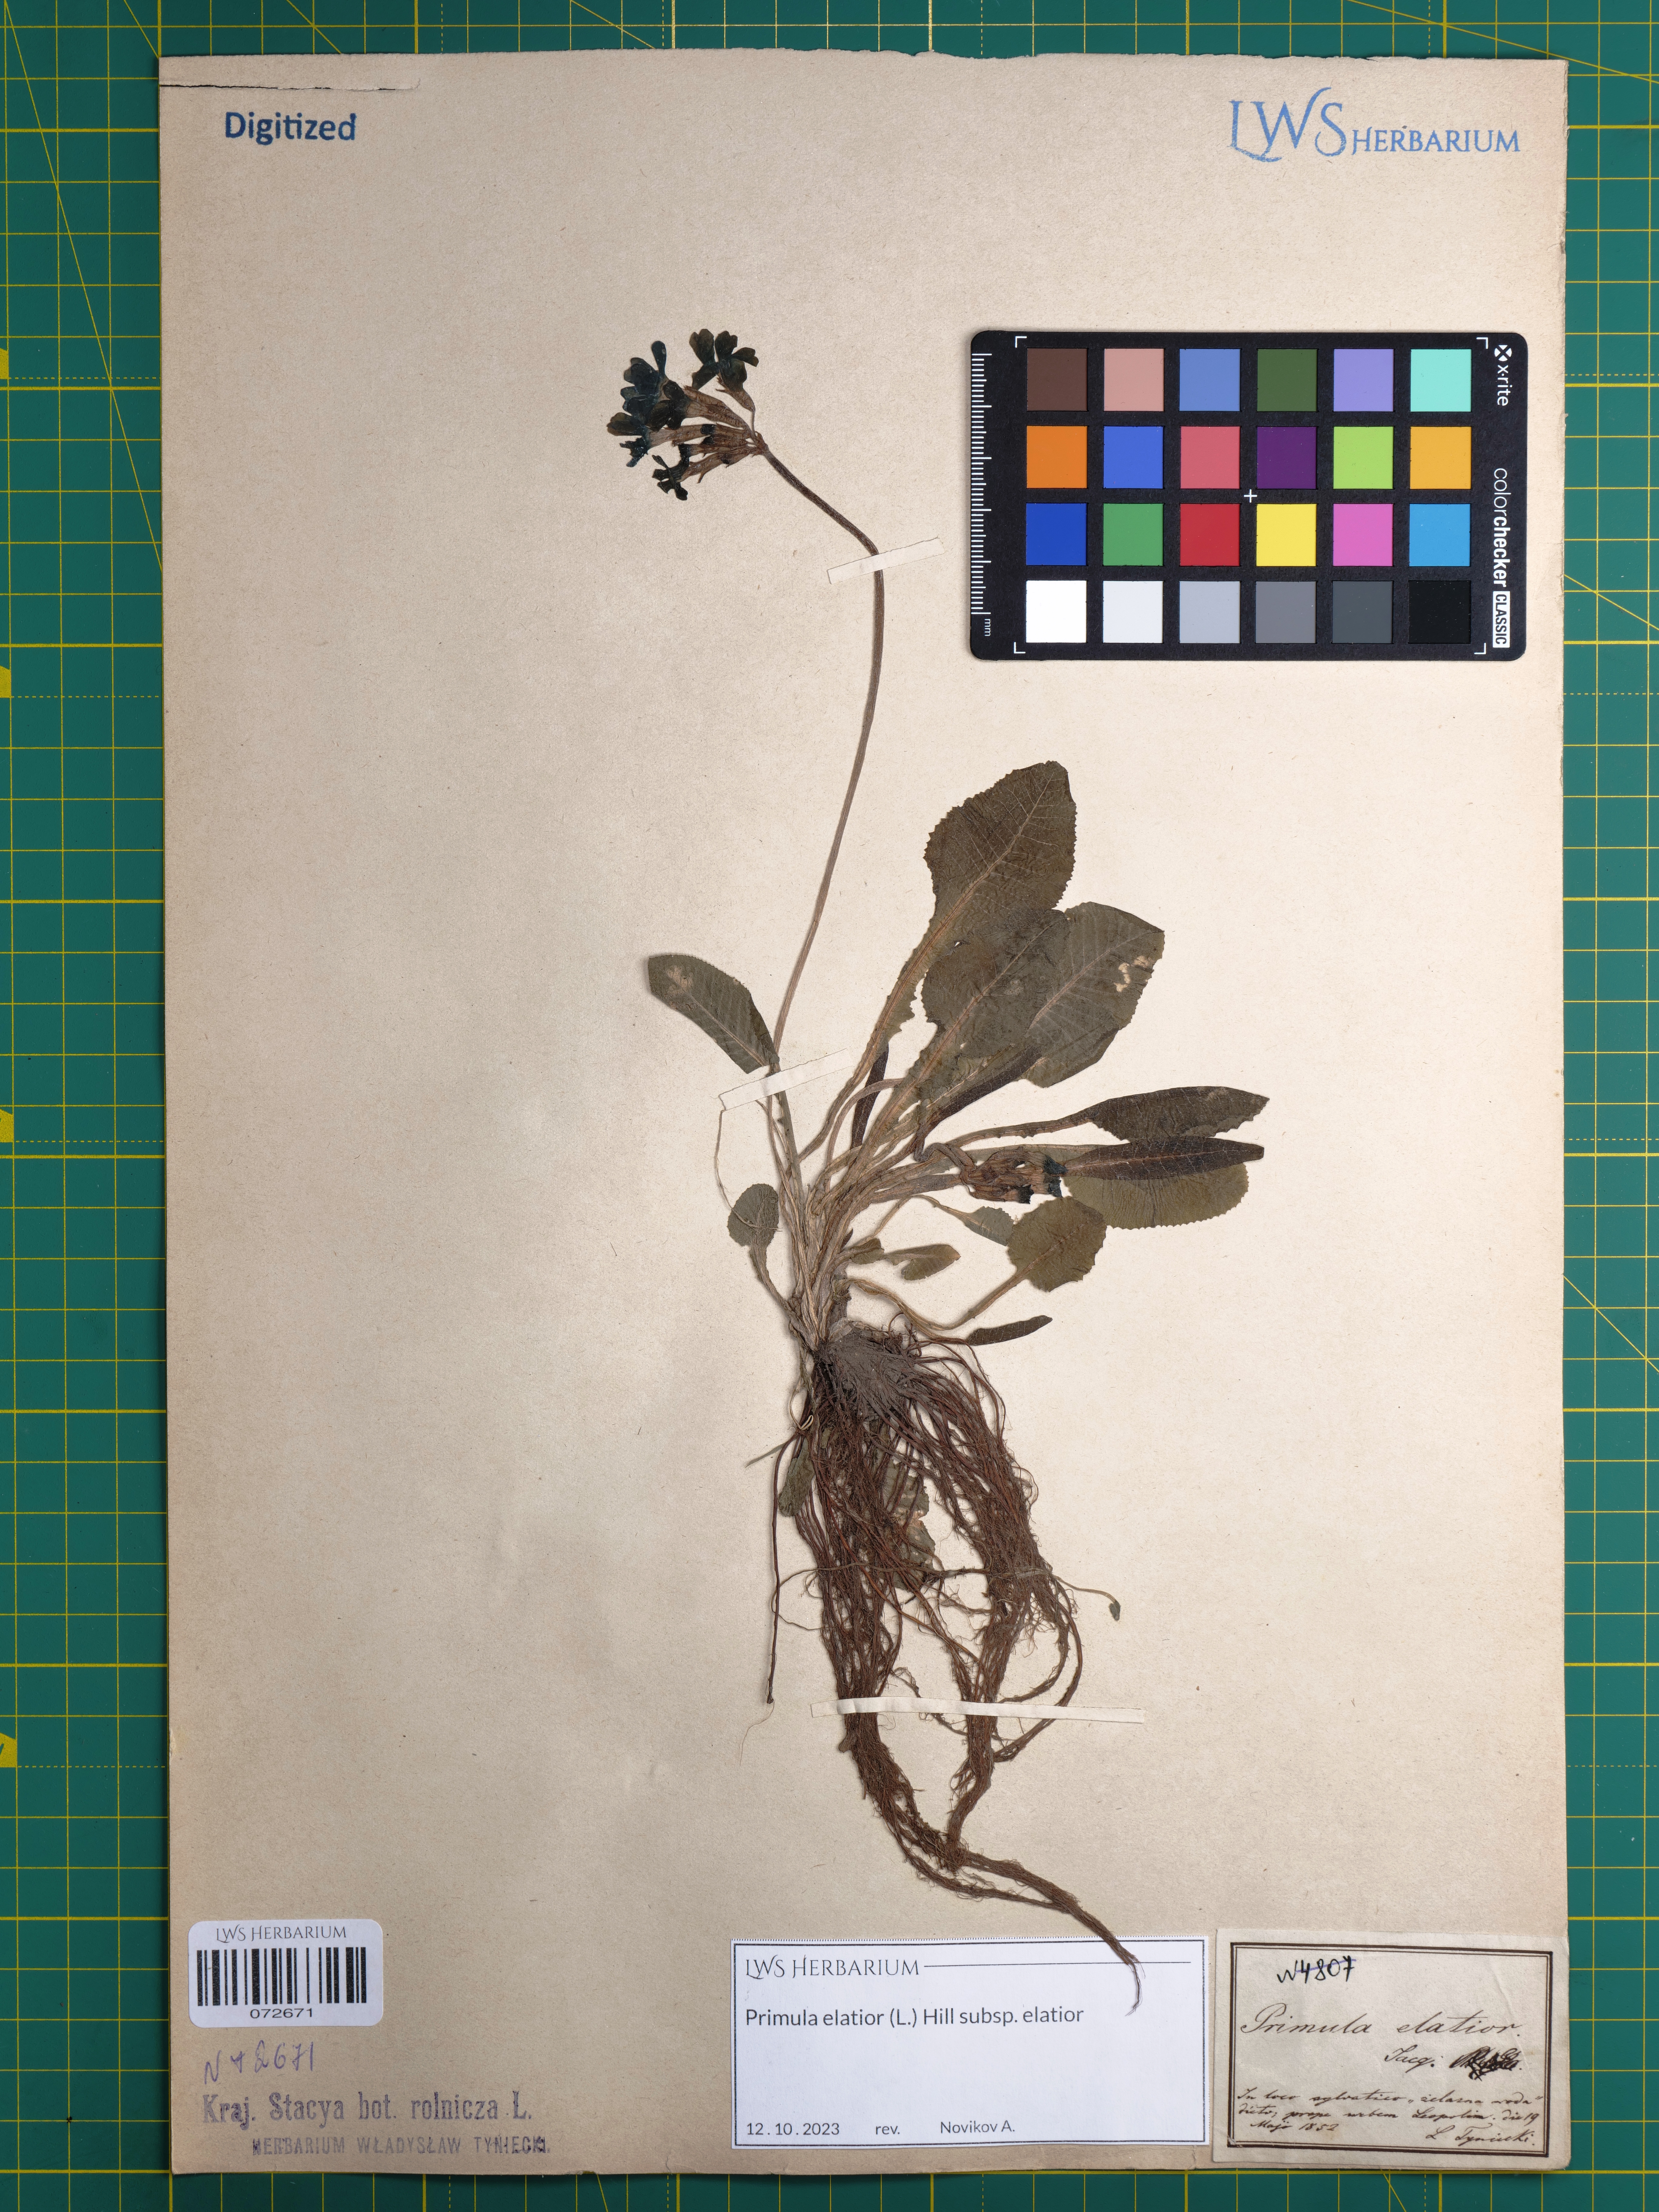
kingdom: Plantae
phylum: Tracheophyta
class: Magnoliopsida
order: Ericales
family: Primulaceae
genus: Primula
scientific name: Primula elatior
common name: Oxlip
